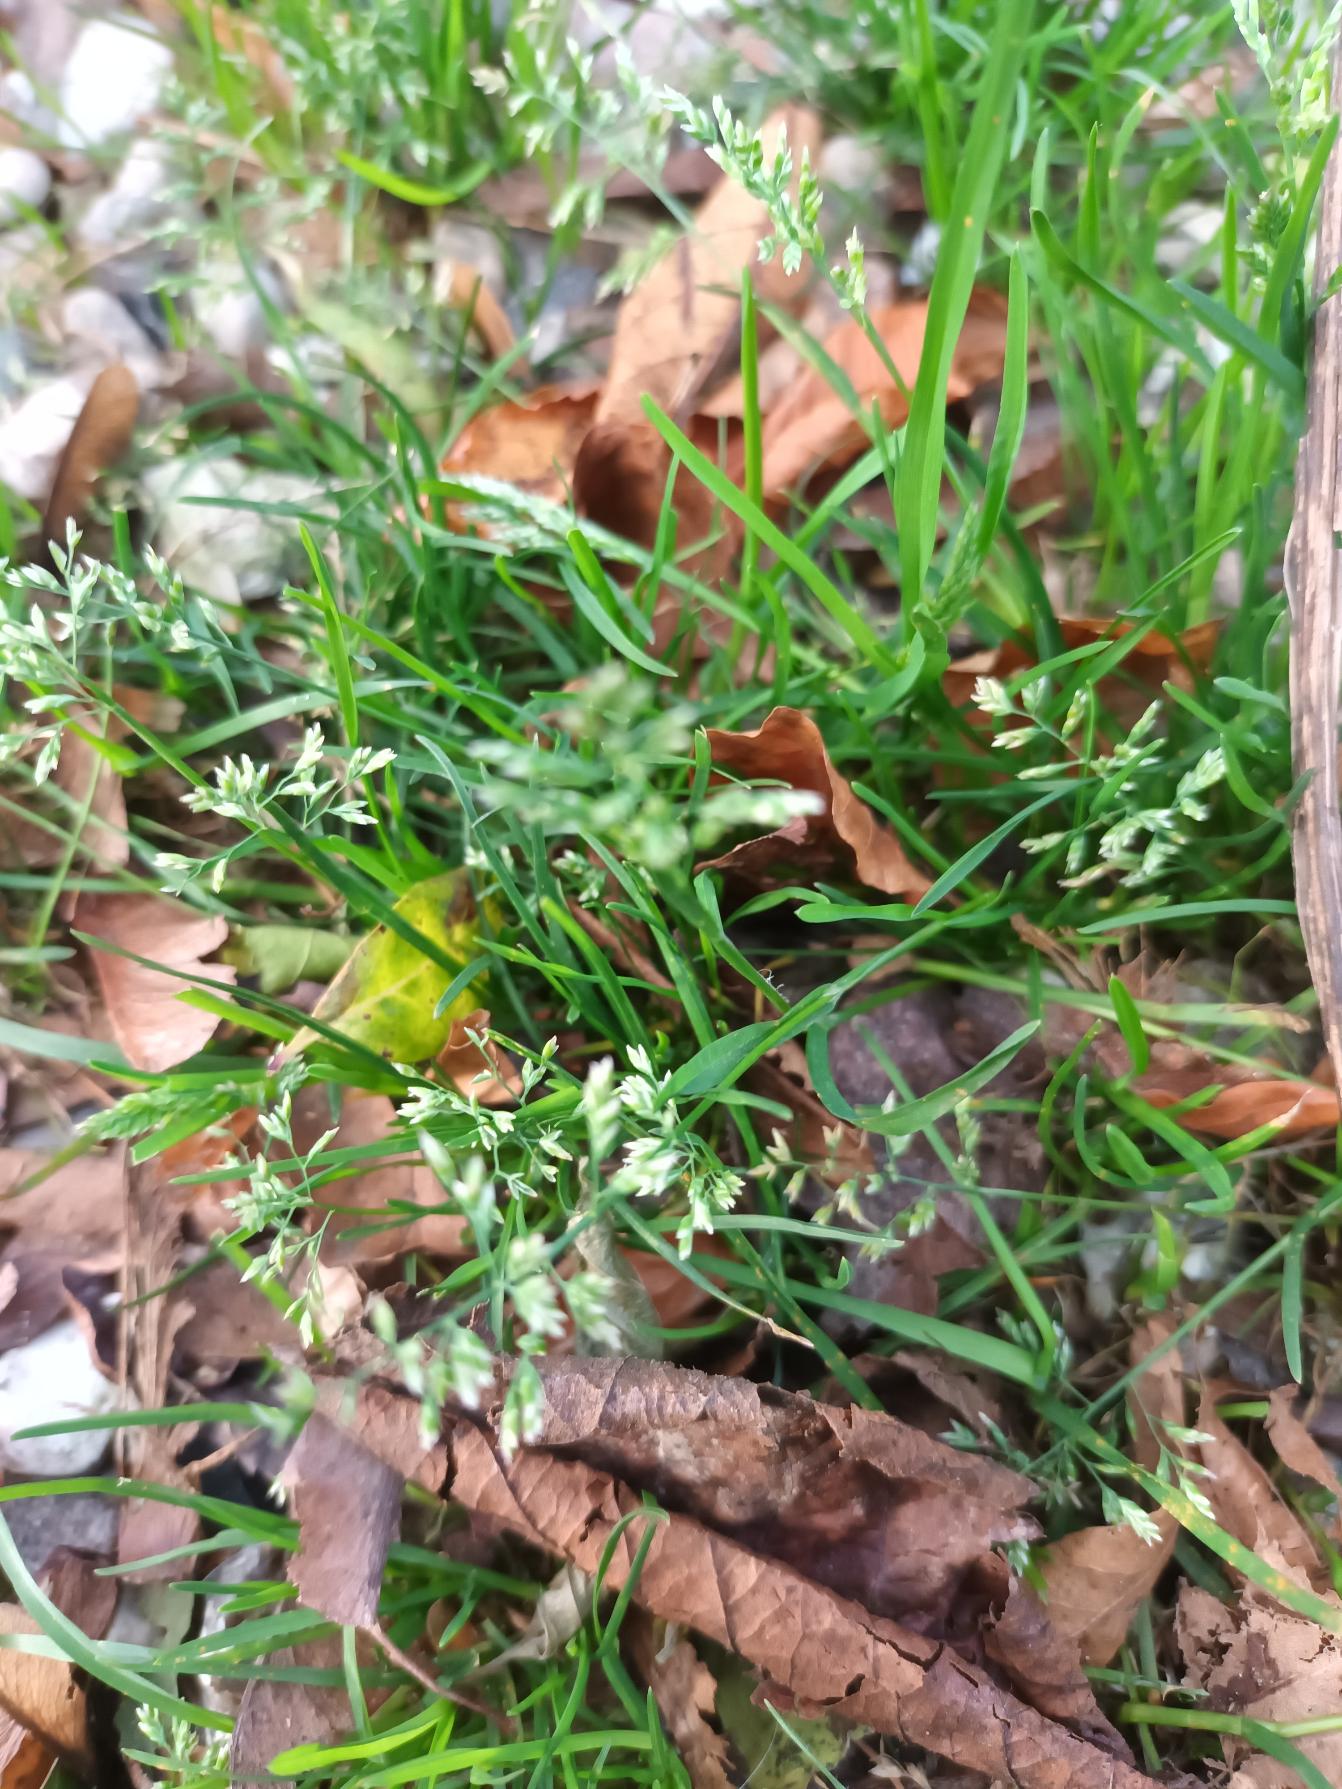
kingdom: Plantae
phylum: Tracheophyta
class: Liliopsida
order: Poales
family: Poaceae
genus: Poa
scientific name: Poa annua
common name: Enårig rapgræs
